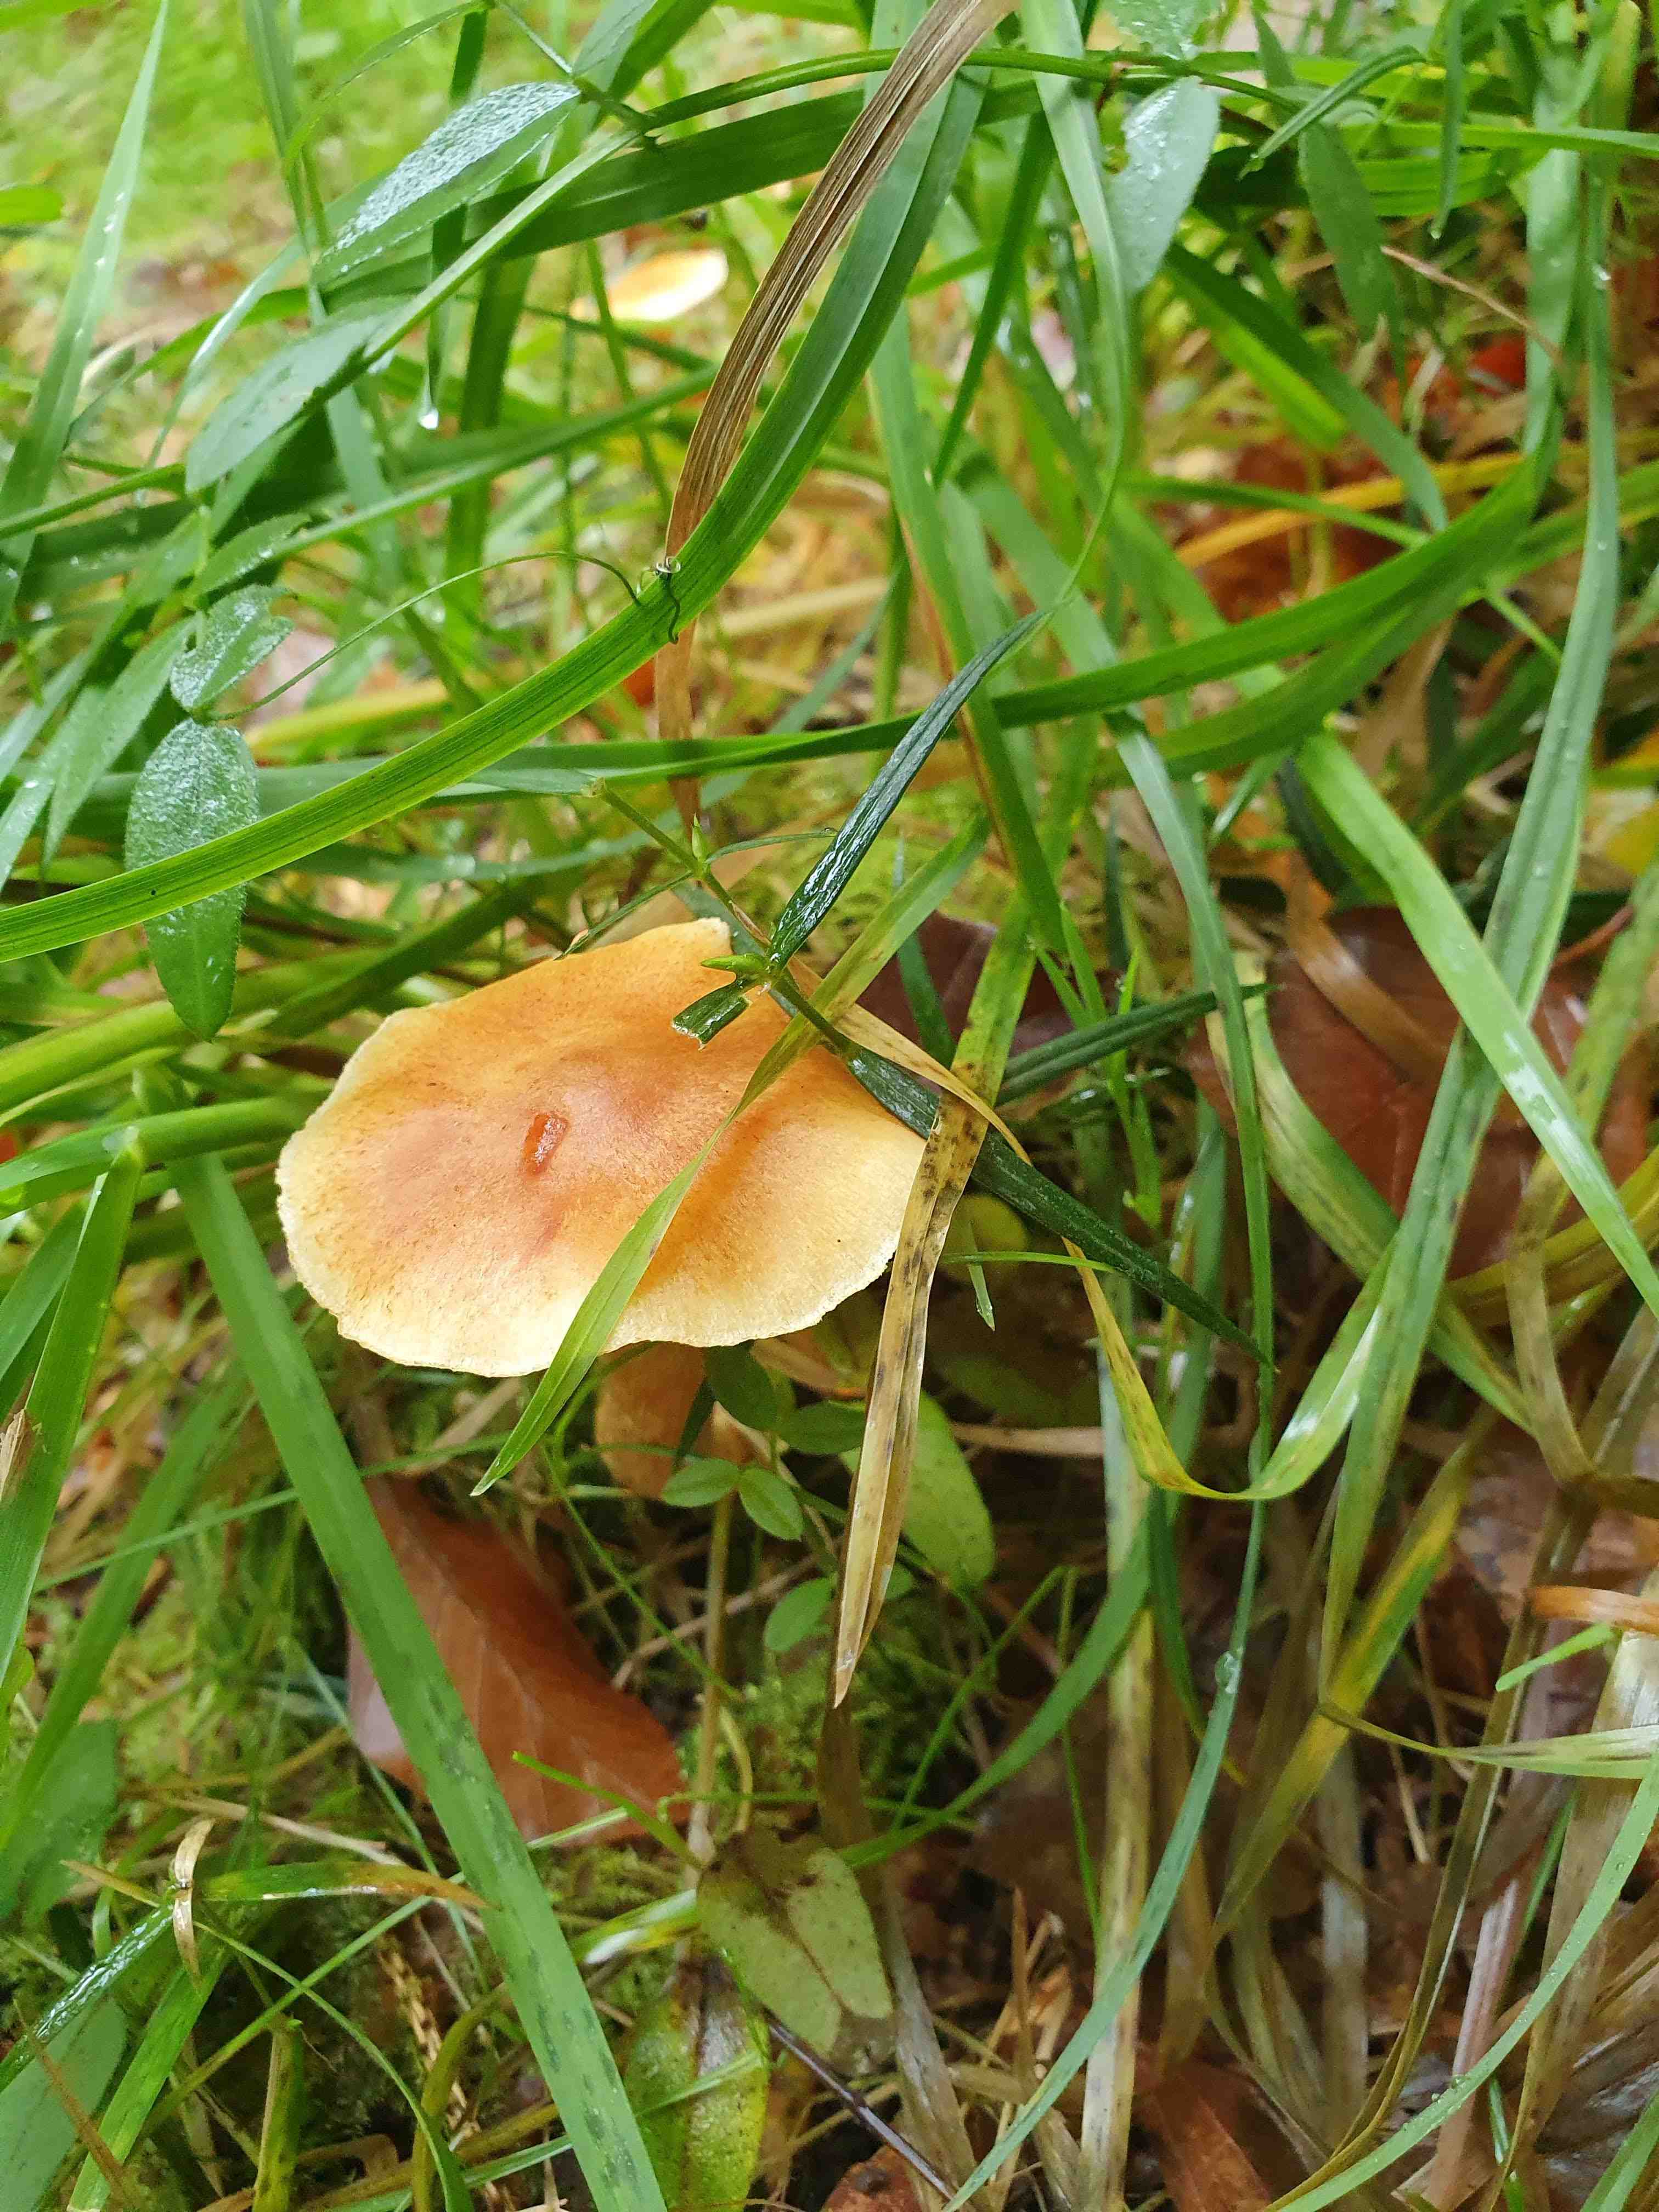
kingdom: Fungi
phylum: Basidiomycota
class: Agaricomycetes
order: Agaricales
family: Hymenogastraceae
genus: Gymnopilus
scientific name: Gymnopilus penetrans
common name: plettet flammehat
